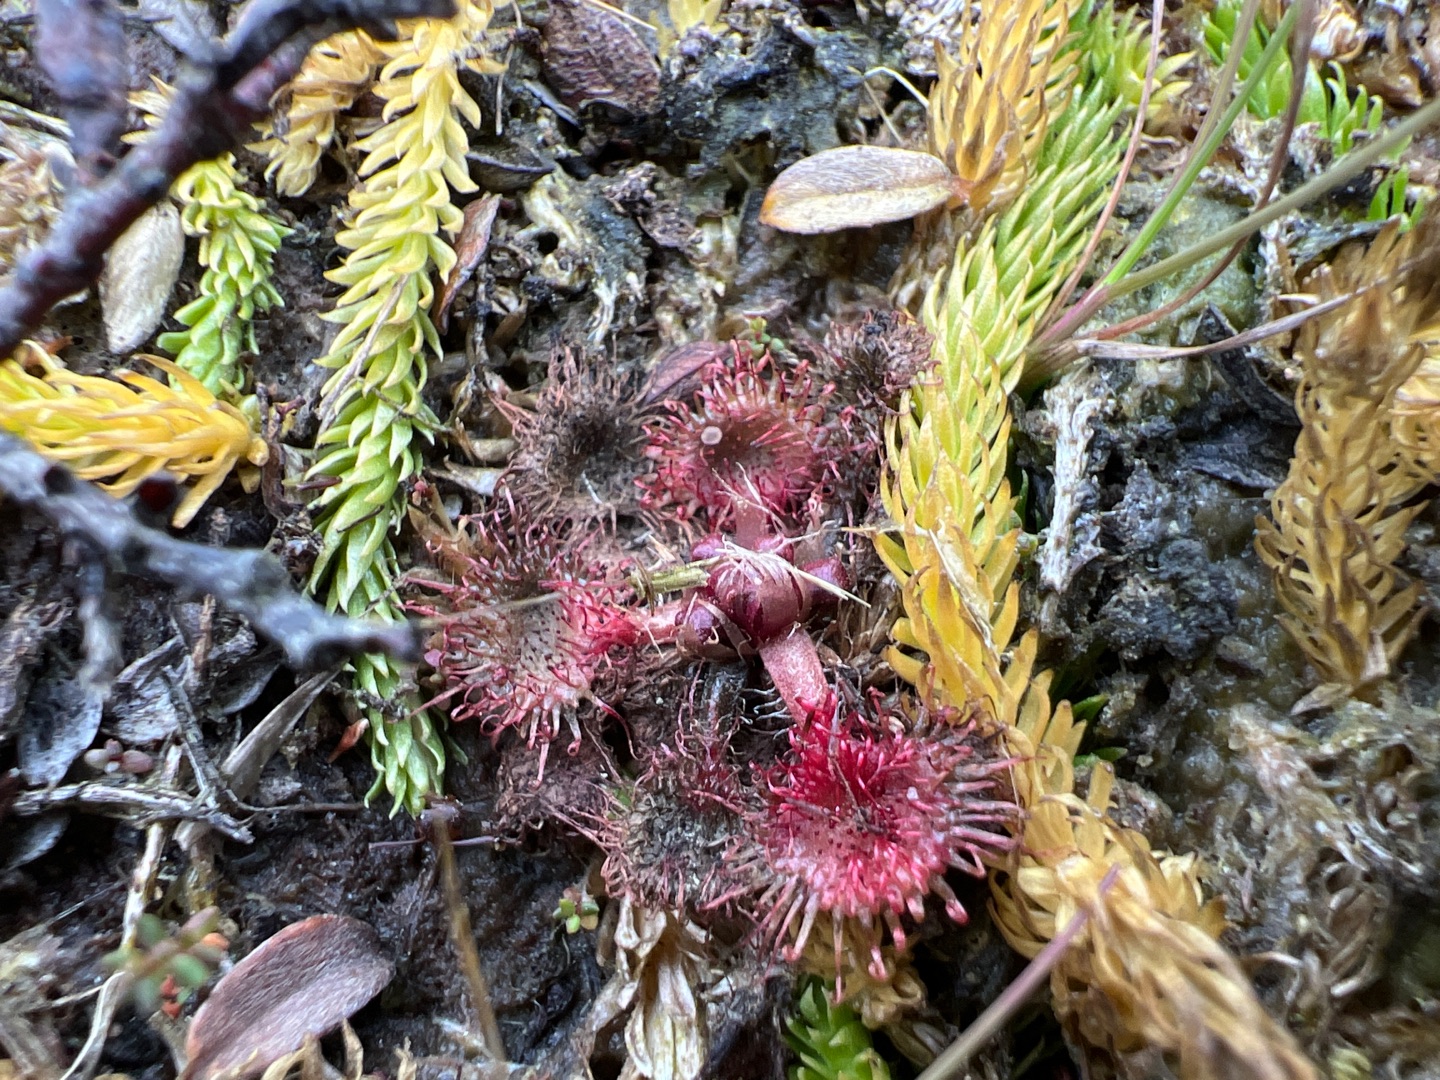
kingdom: Plantae
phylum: Tracheophyta
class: Magnoliopsida
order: Caryophyllales
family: Droseraceae
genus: Drosera
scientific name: Drosera rotundifolia
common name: Rundbladet soldug
